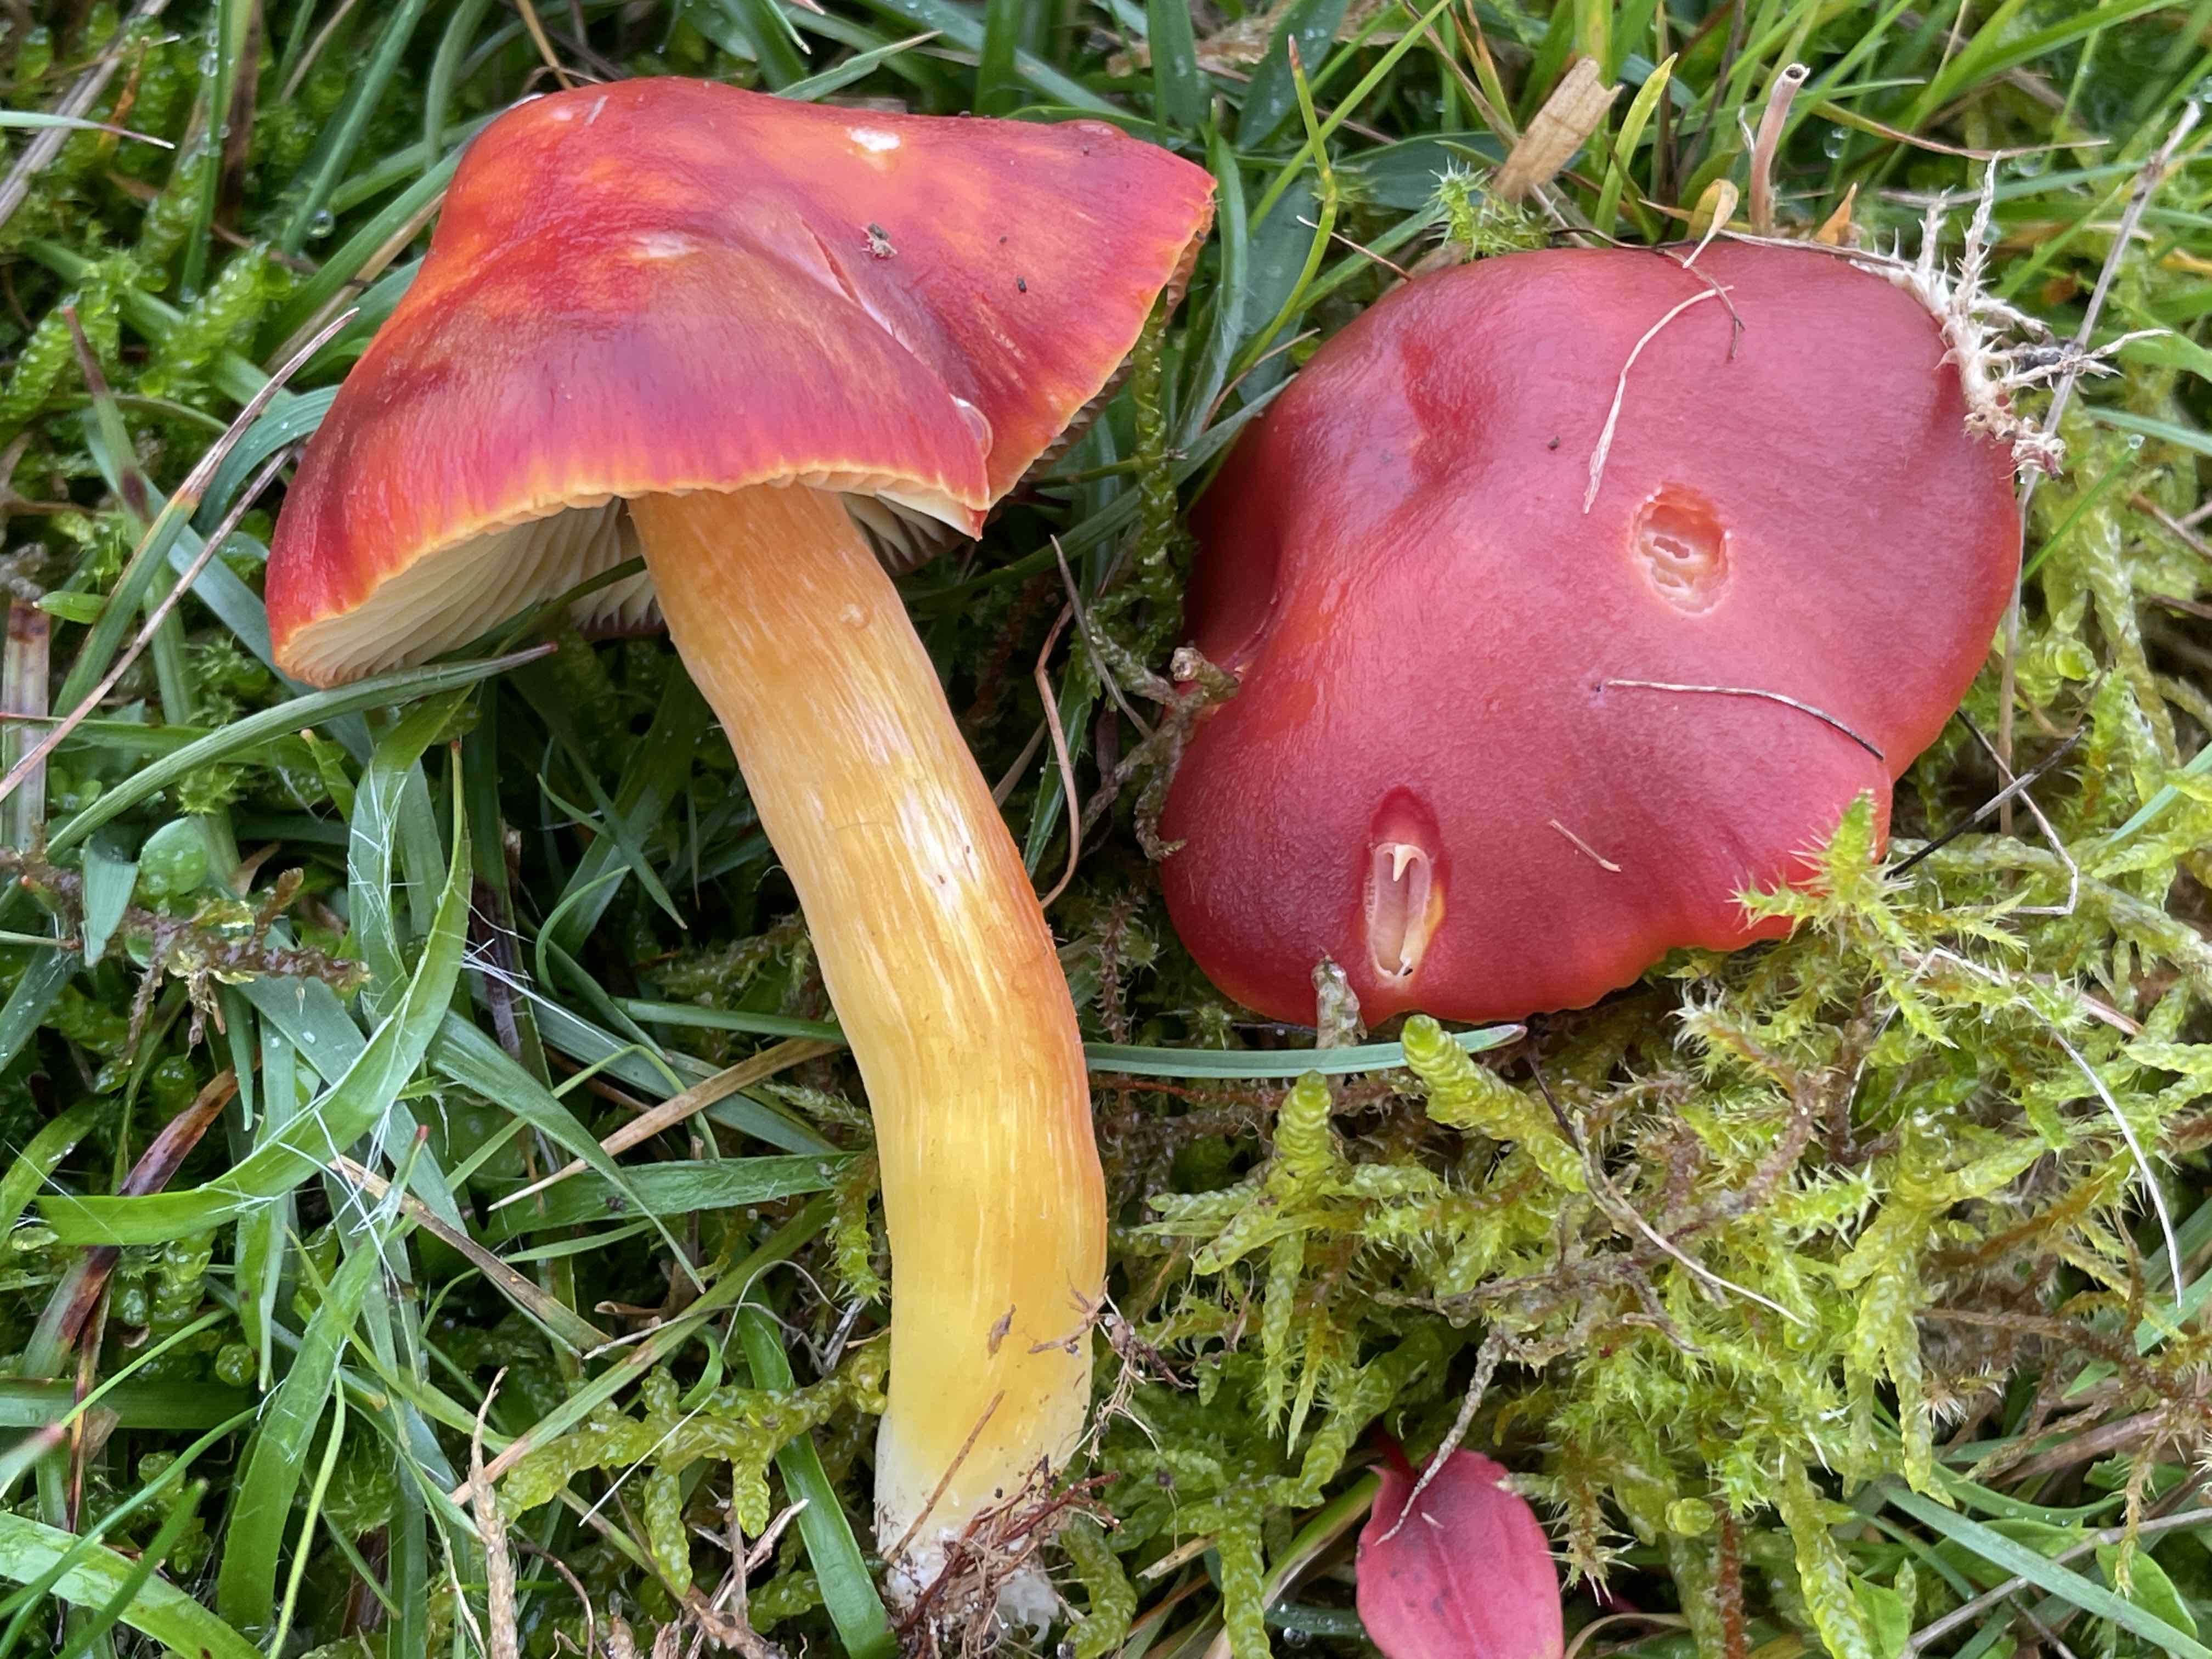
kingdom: Fungi
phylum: Basidiomycota
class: Agaricomycetes
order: Agaricales
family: Hygrophoraceae
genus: Hygrocybe
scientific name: Hygrocybe punicea
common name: skarlagen-vokshat
